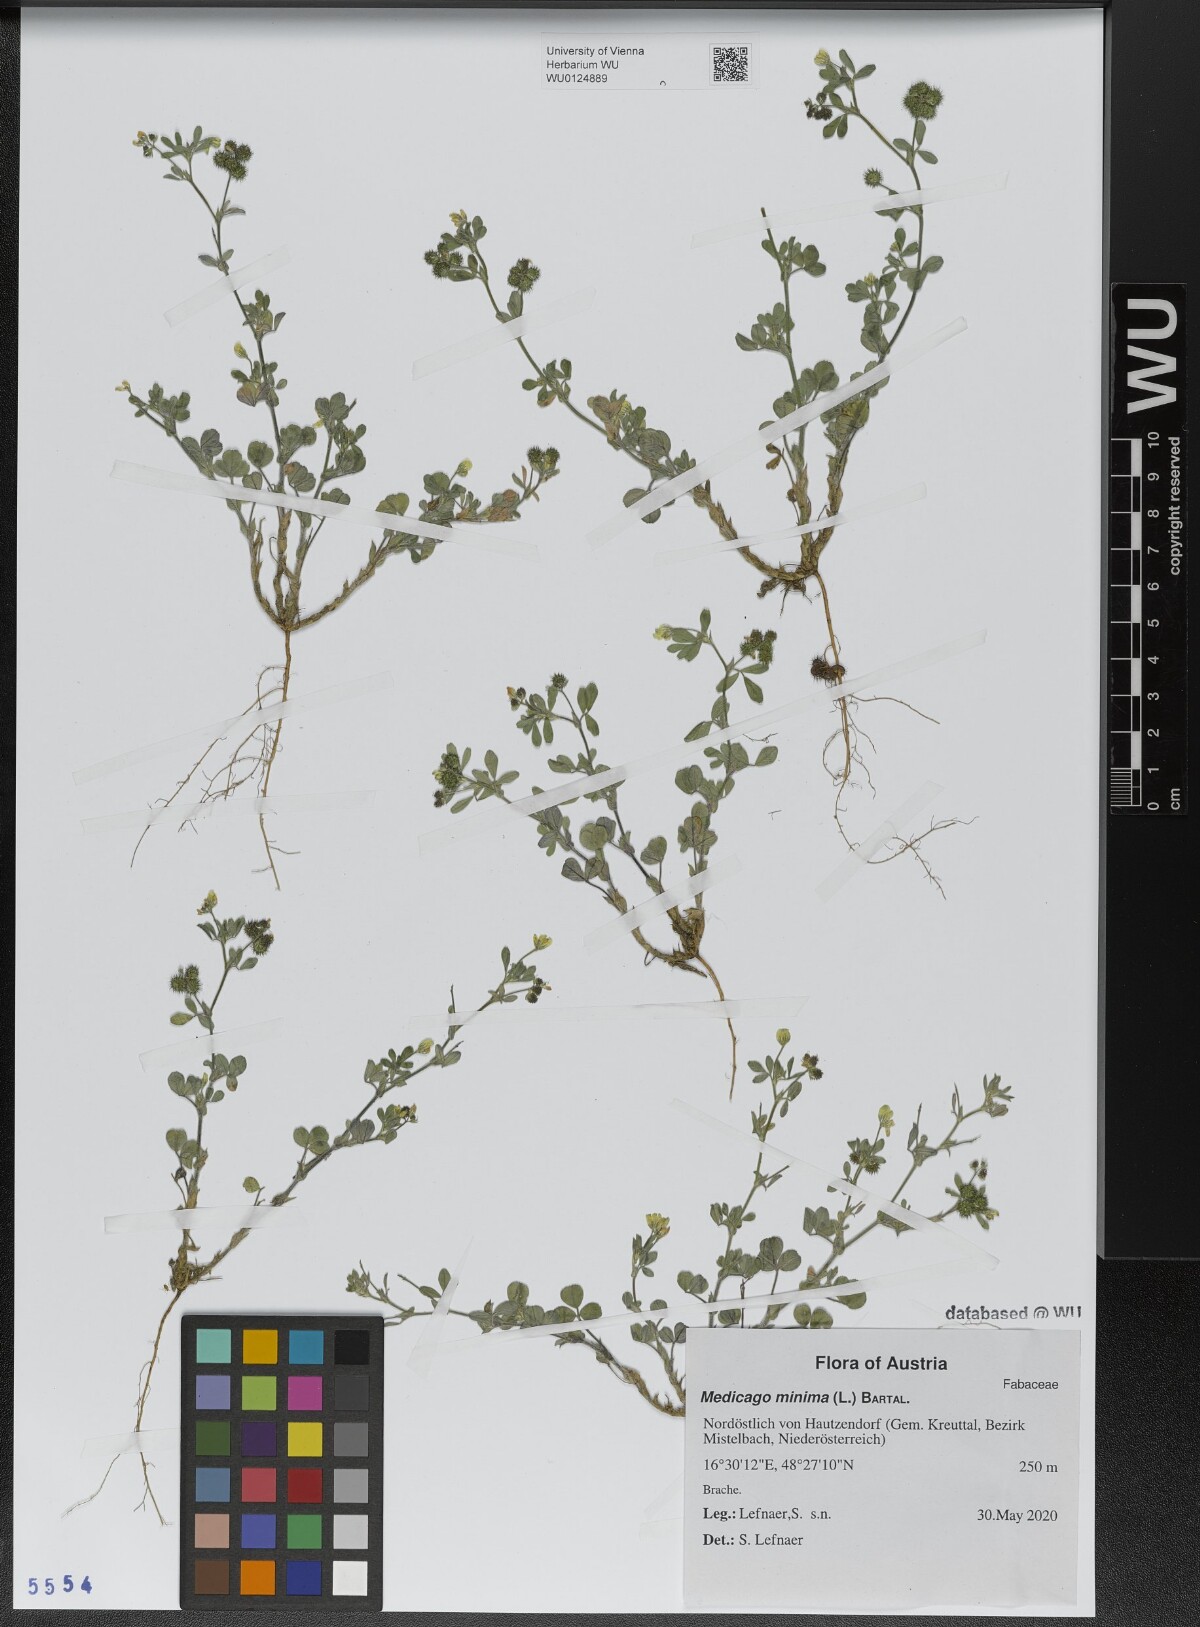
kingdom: Plantae
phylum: Tracheophyta
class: Magnoliopsida
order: Fabales
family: Fabaceae
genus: Medicago
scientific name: Medicago minima
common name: Little bur-clover
